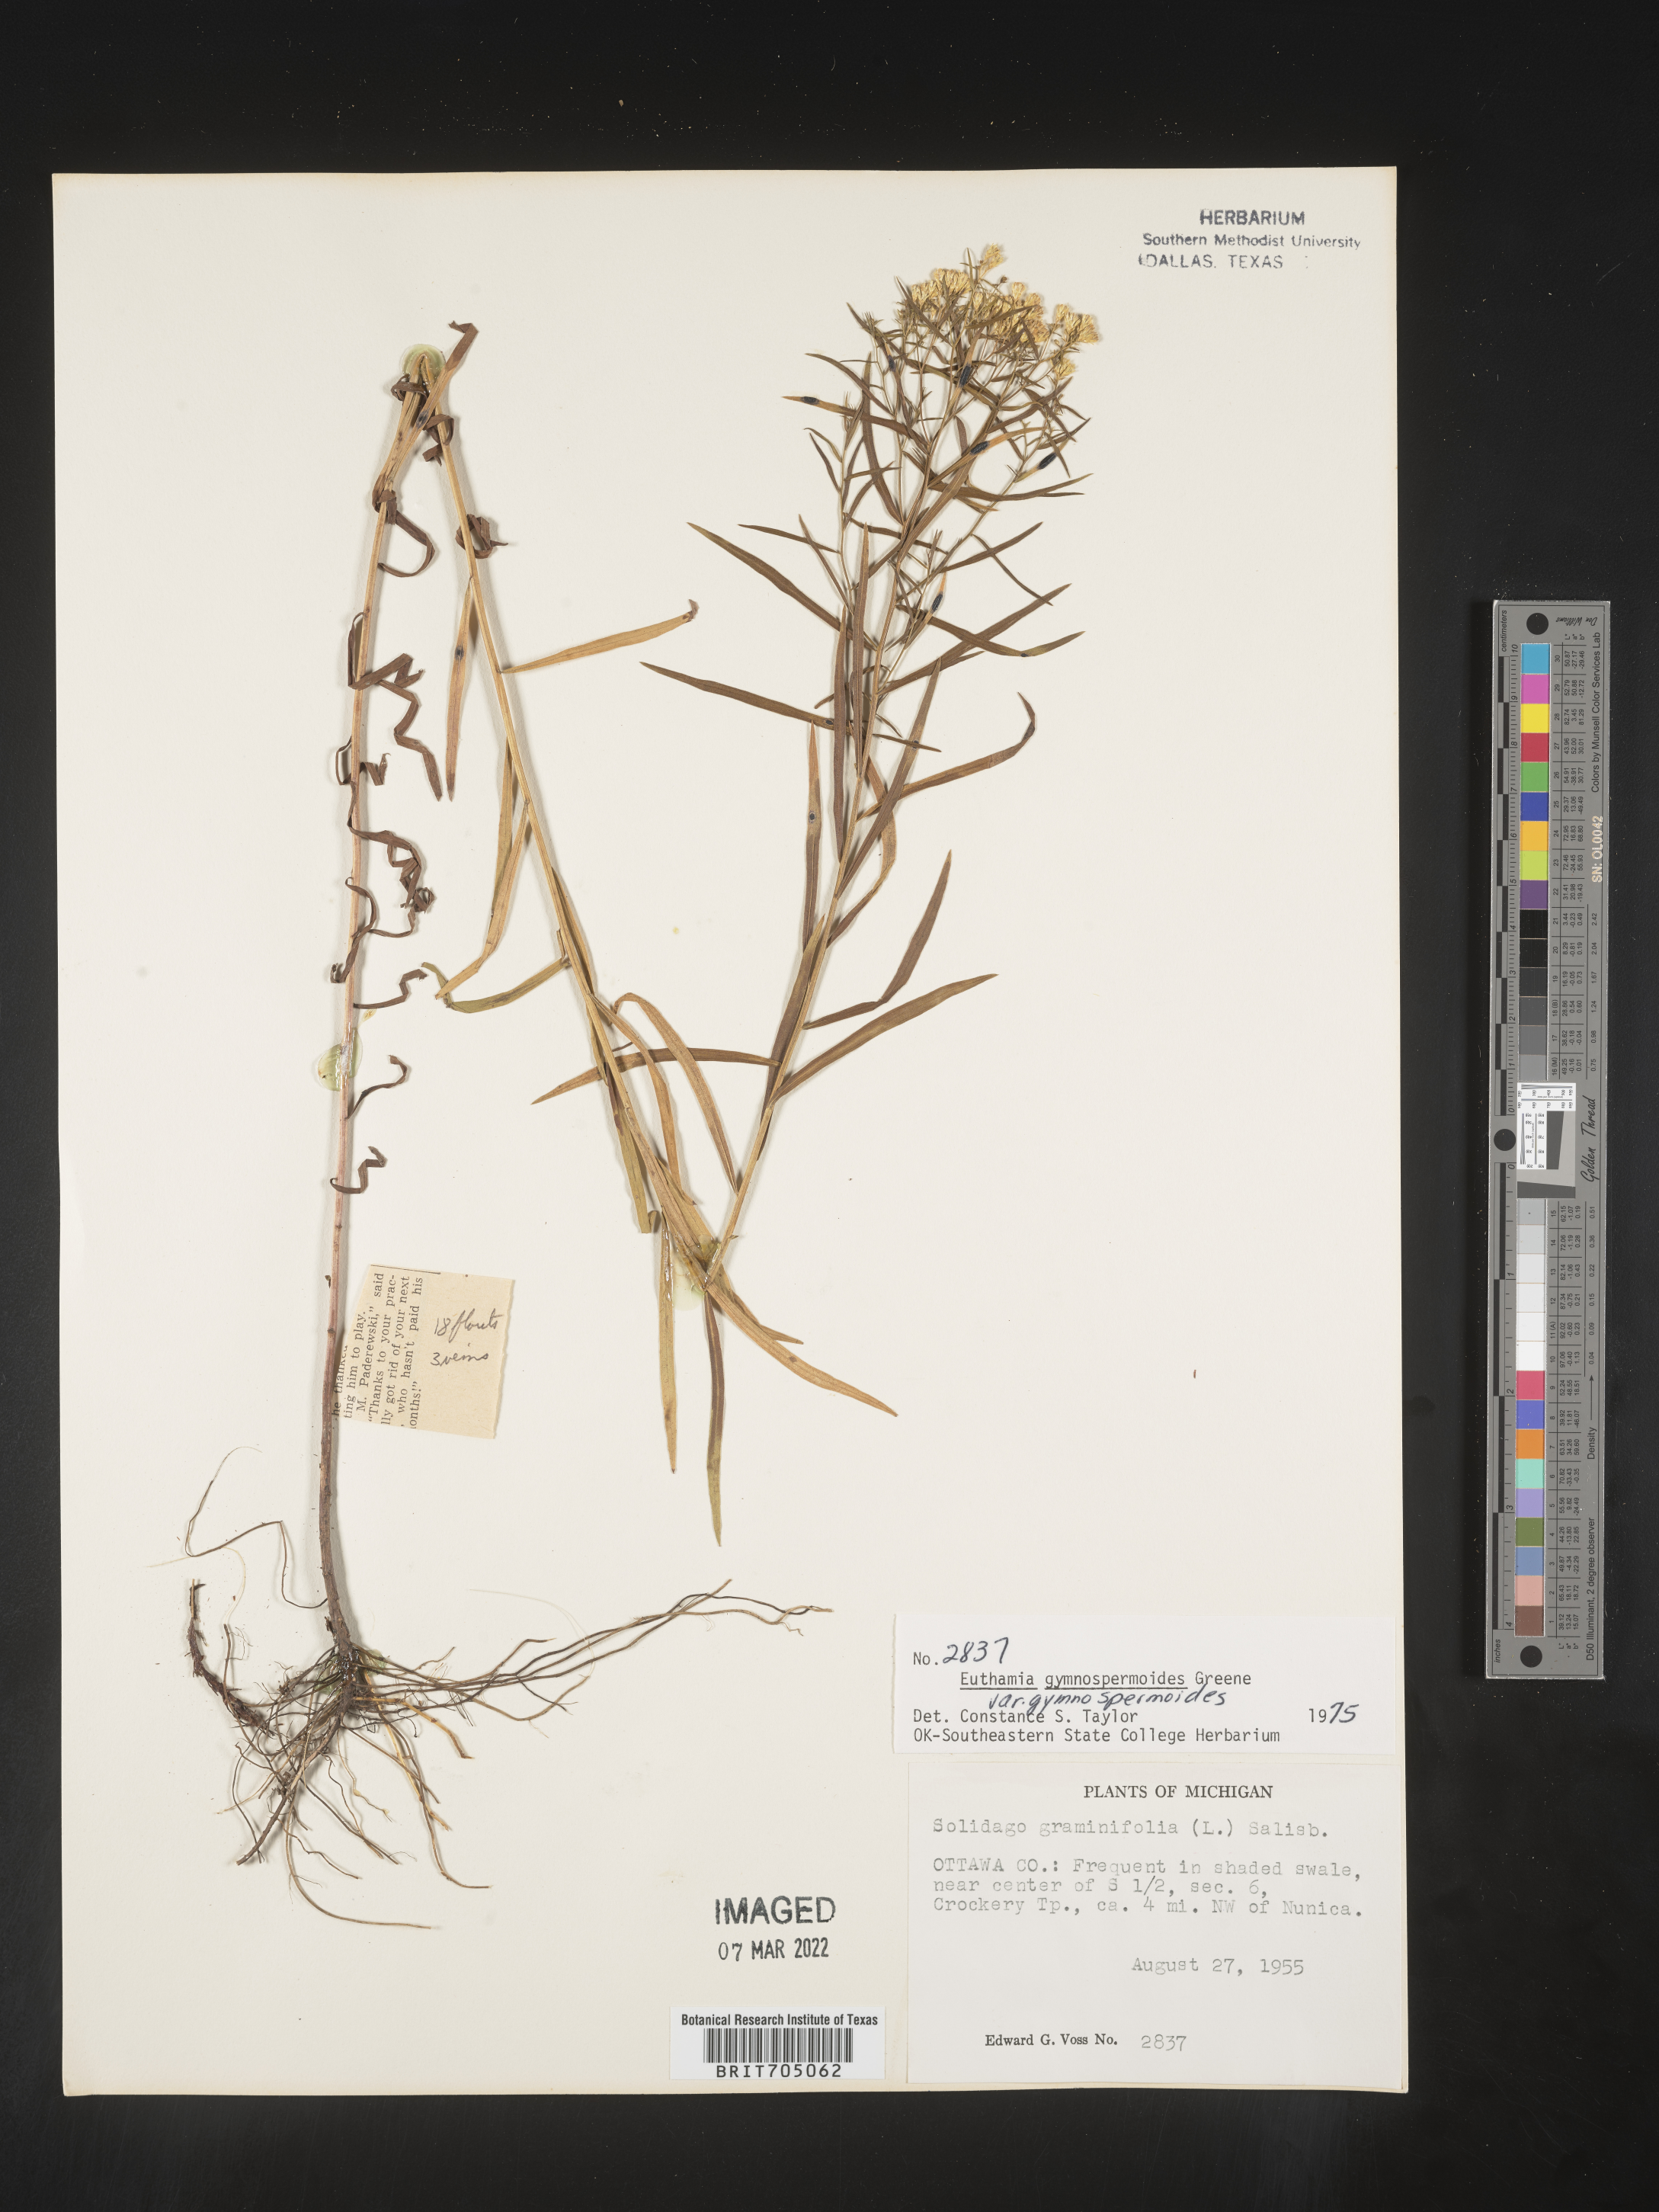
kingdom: Plantae
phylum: Tracheophyta
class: Magnoliopsida
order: Asterales
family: Asteraceae
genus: Euthamia
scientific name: Euthamia gymnospermoides
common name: Great plains goldentop
